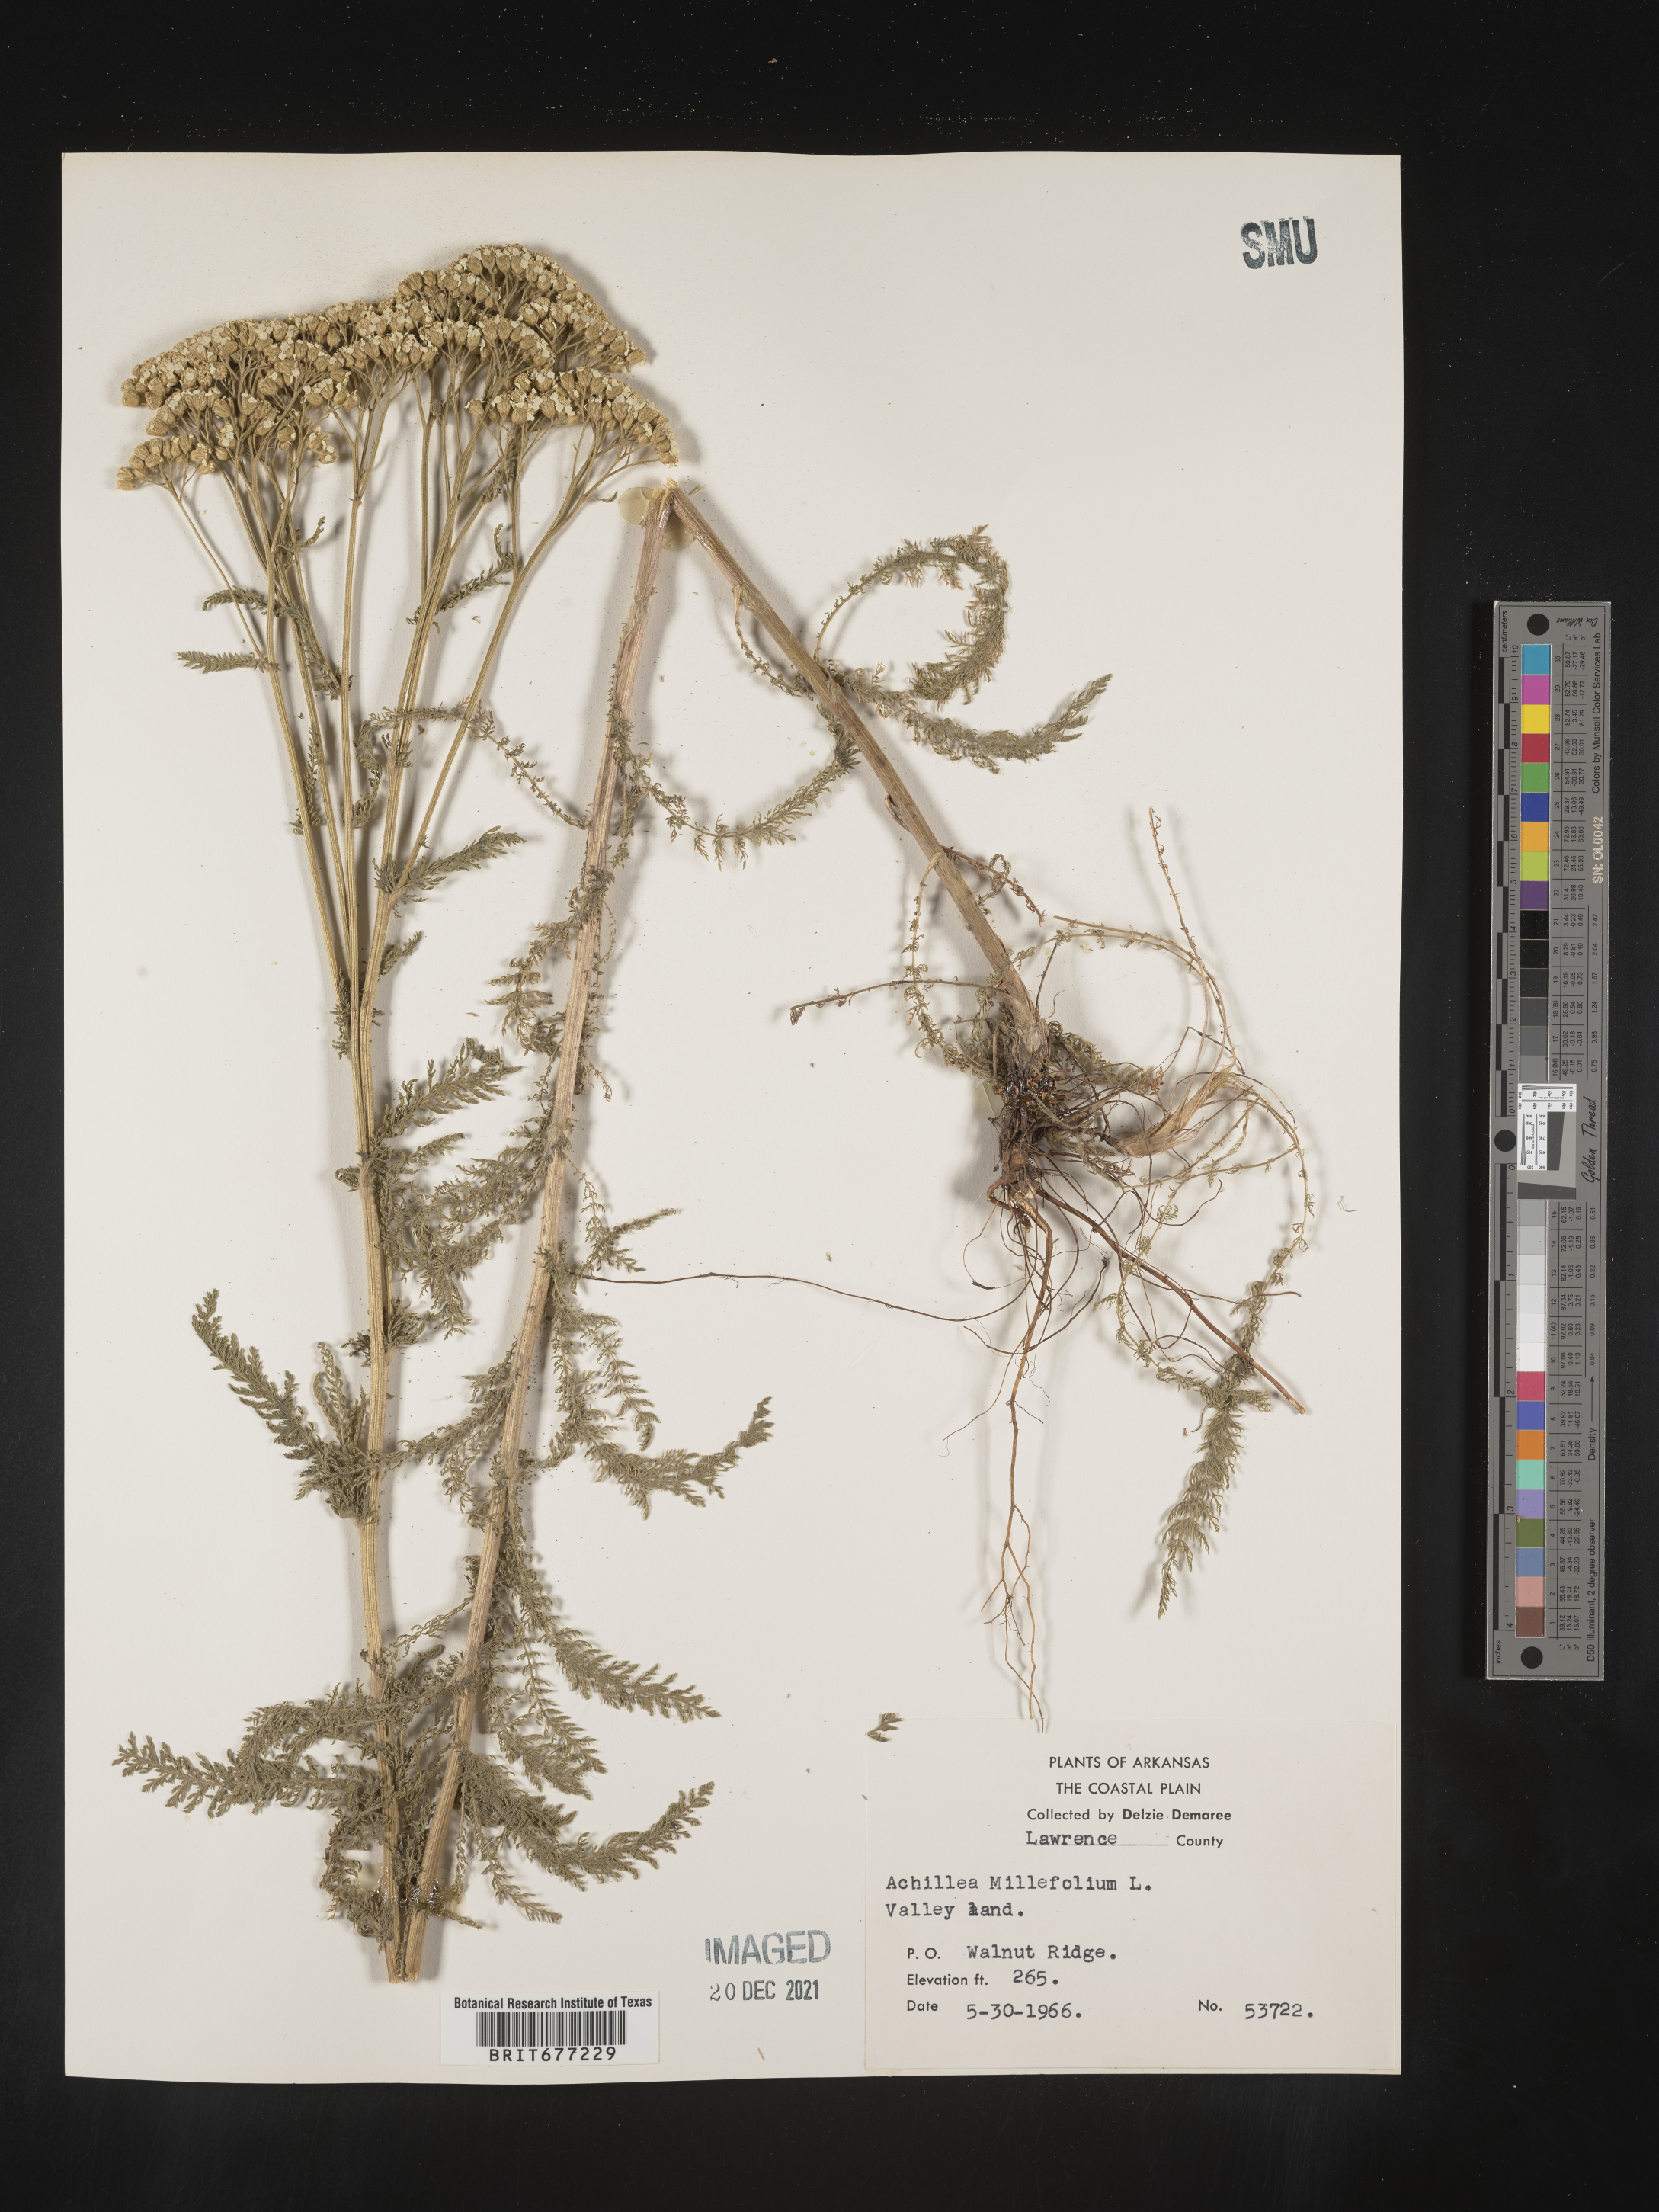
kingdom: Plantae
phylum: Tracheophyta
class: Magnoliopsida
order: Asterales
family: Asteraceae
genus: Achillea
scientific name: Achillea millefolium
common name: Yarrow
